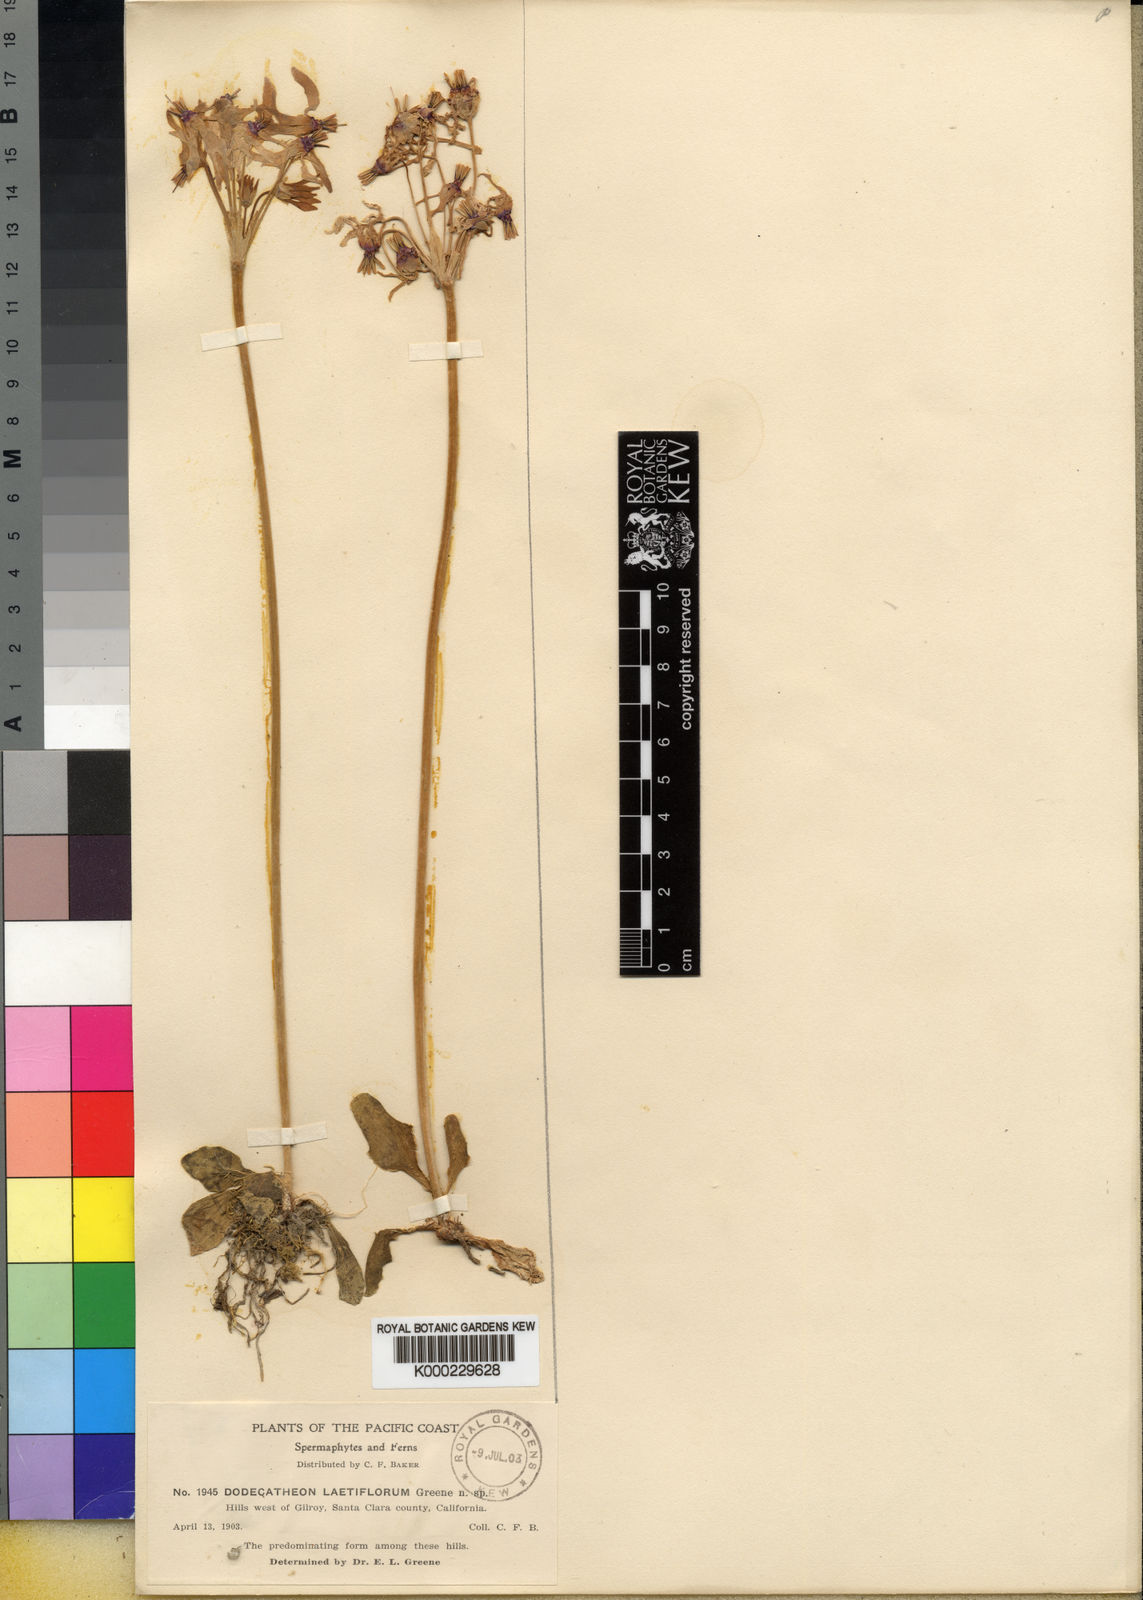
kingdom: Plantae
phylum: Tracheophyta
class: Magnoliopsida
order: Ericales
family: Primulaceae
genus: Dodecatheon
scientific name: Dodecatheon clevelandii
